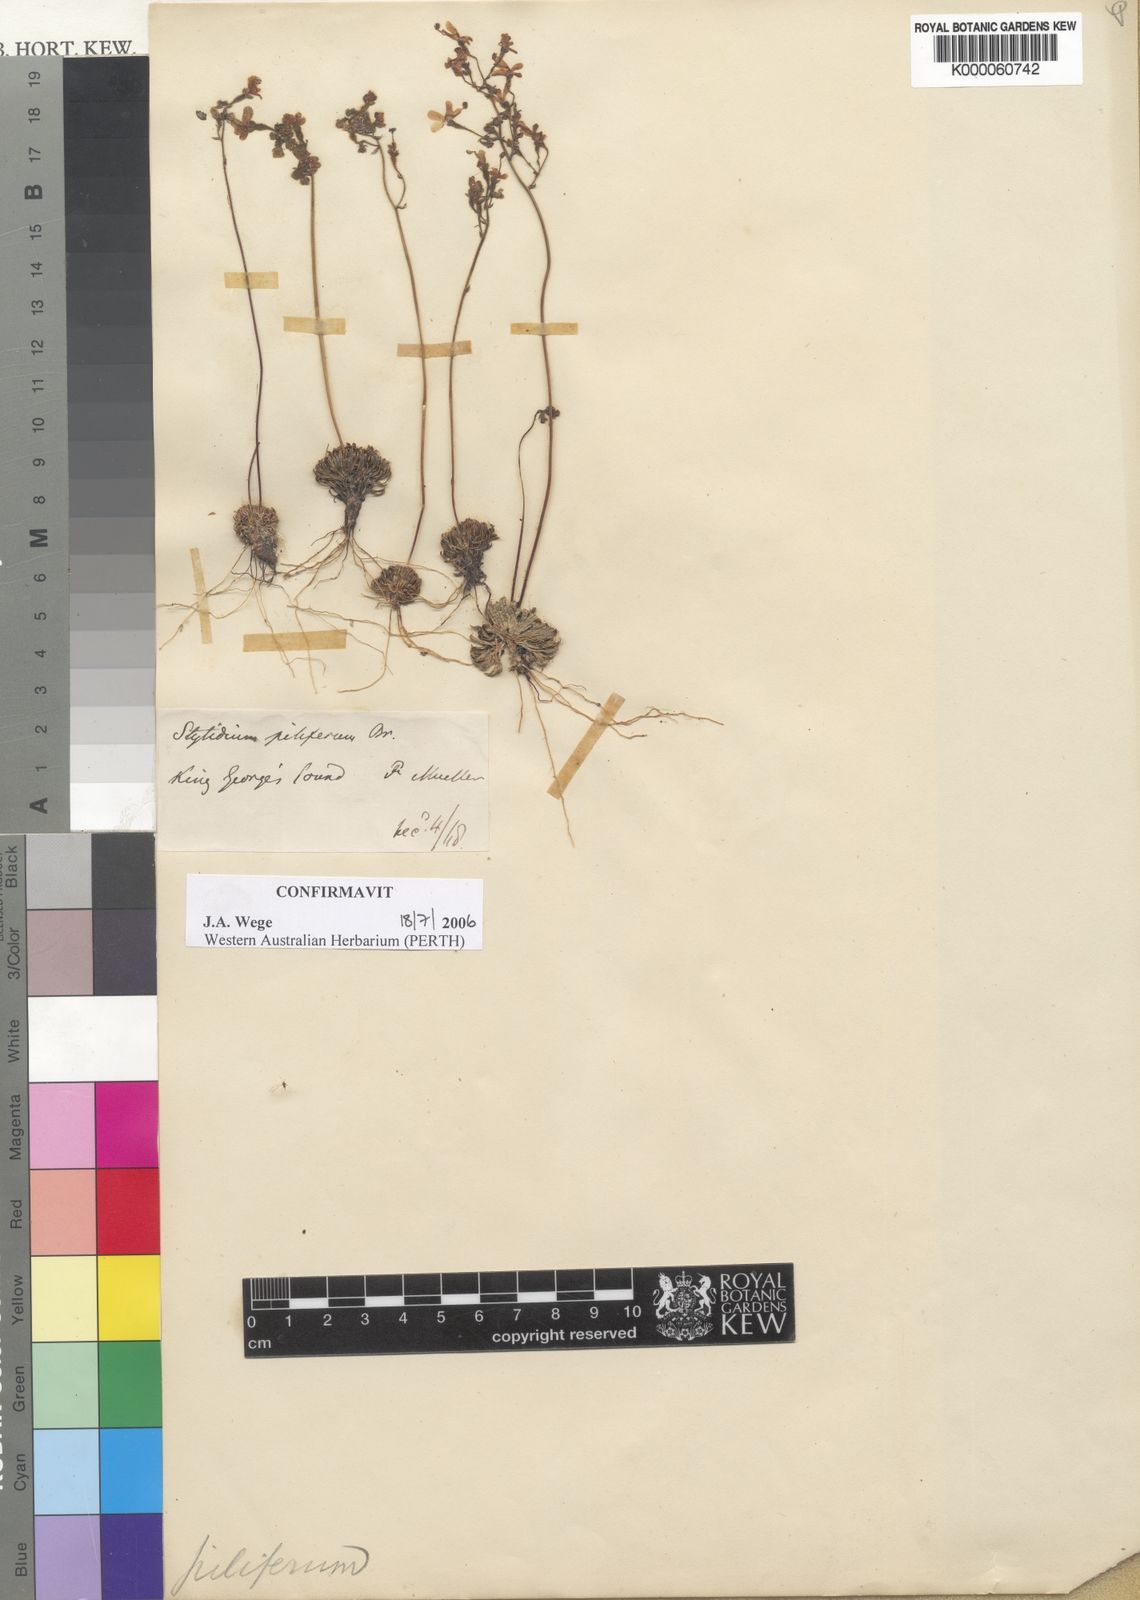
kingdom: Plantae
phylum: Tracheophyta
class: Magnoliopsida
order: Asterales
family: Stylidiaceae
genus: Stylidium
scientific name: Stylidium piliferum
